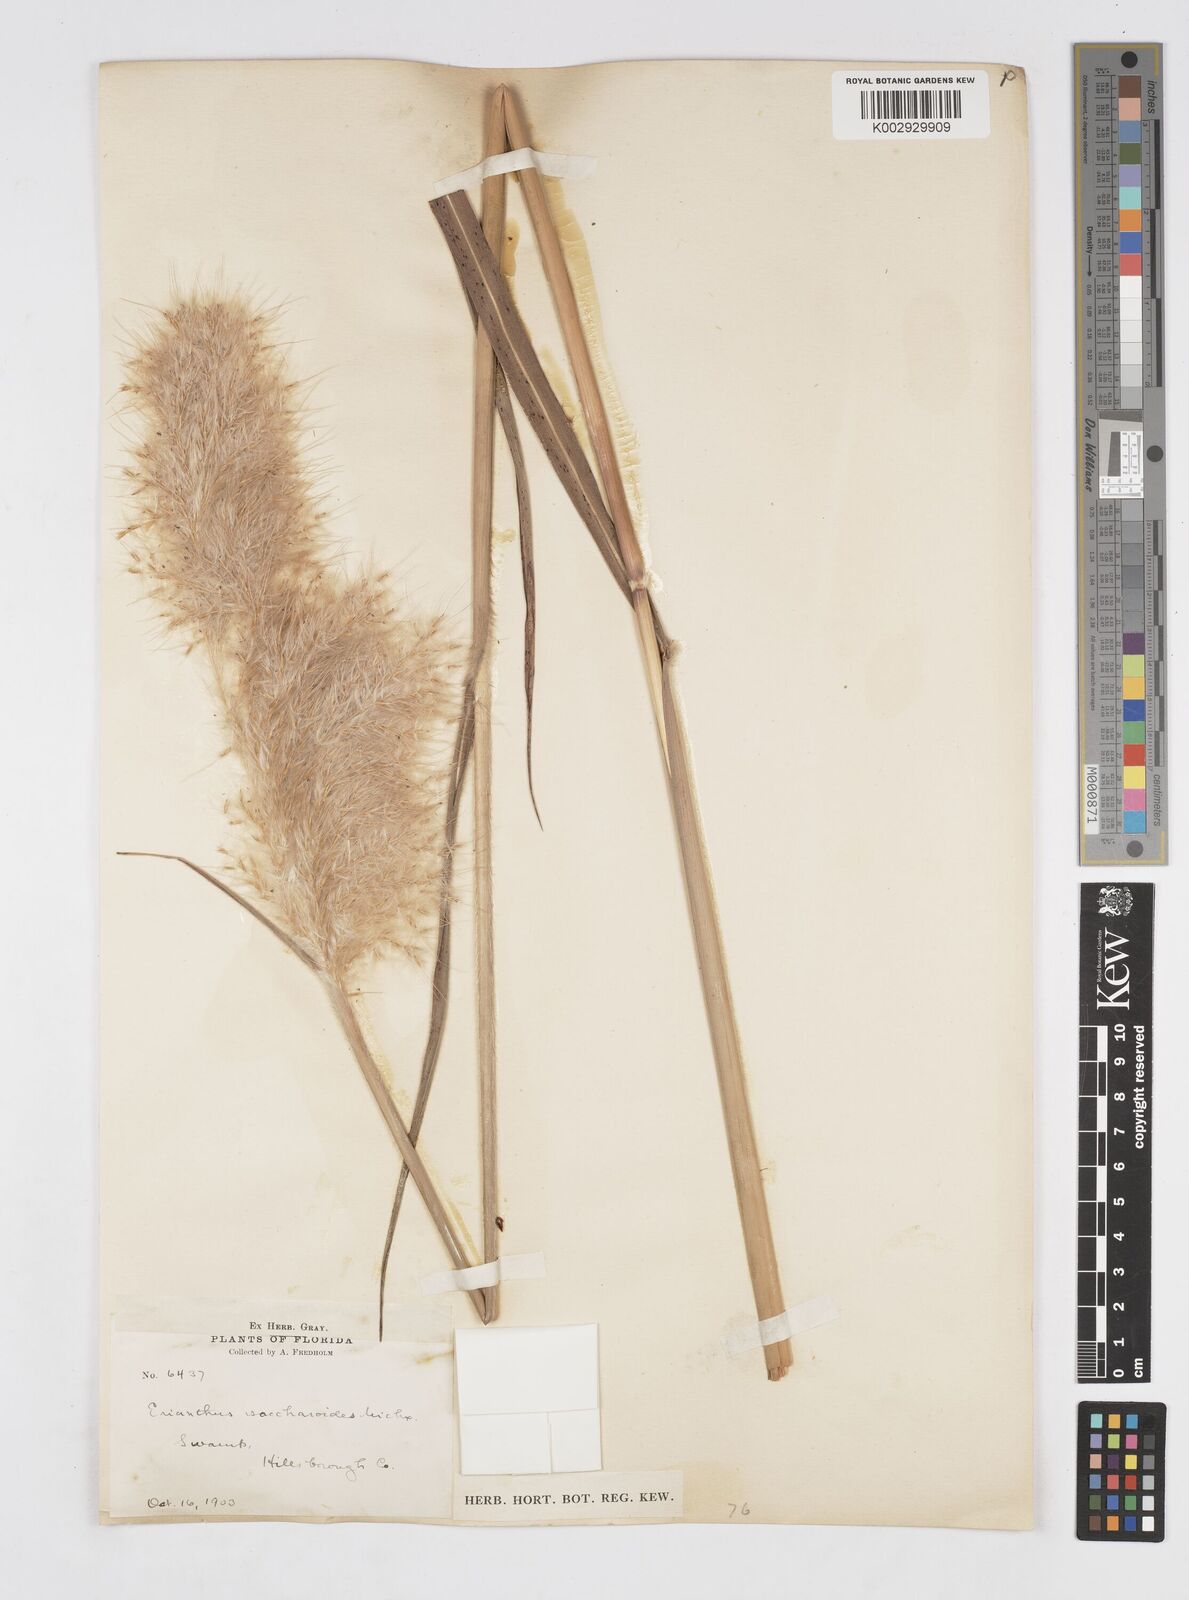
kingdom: Plantae
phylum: Tracheophyta
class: Liliopsida
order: Poales
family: Poaceae
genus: Saccharum
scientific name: Saccharum
